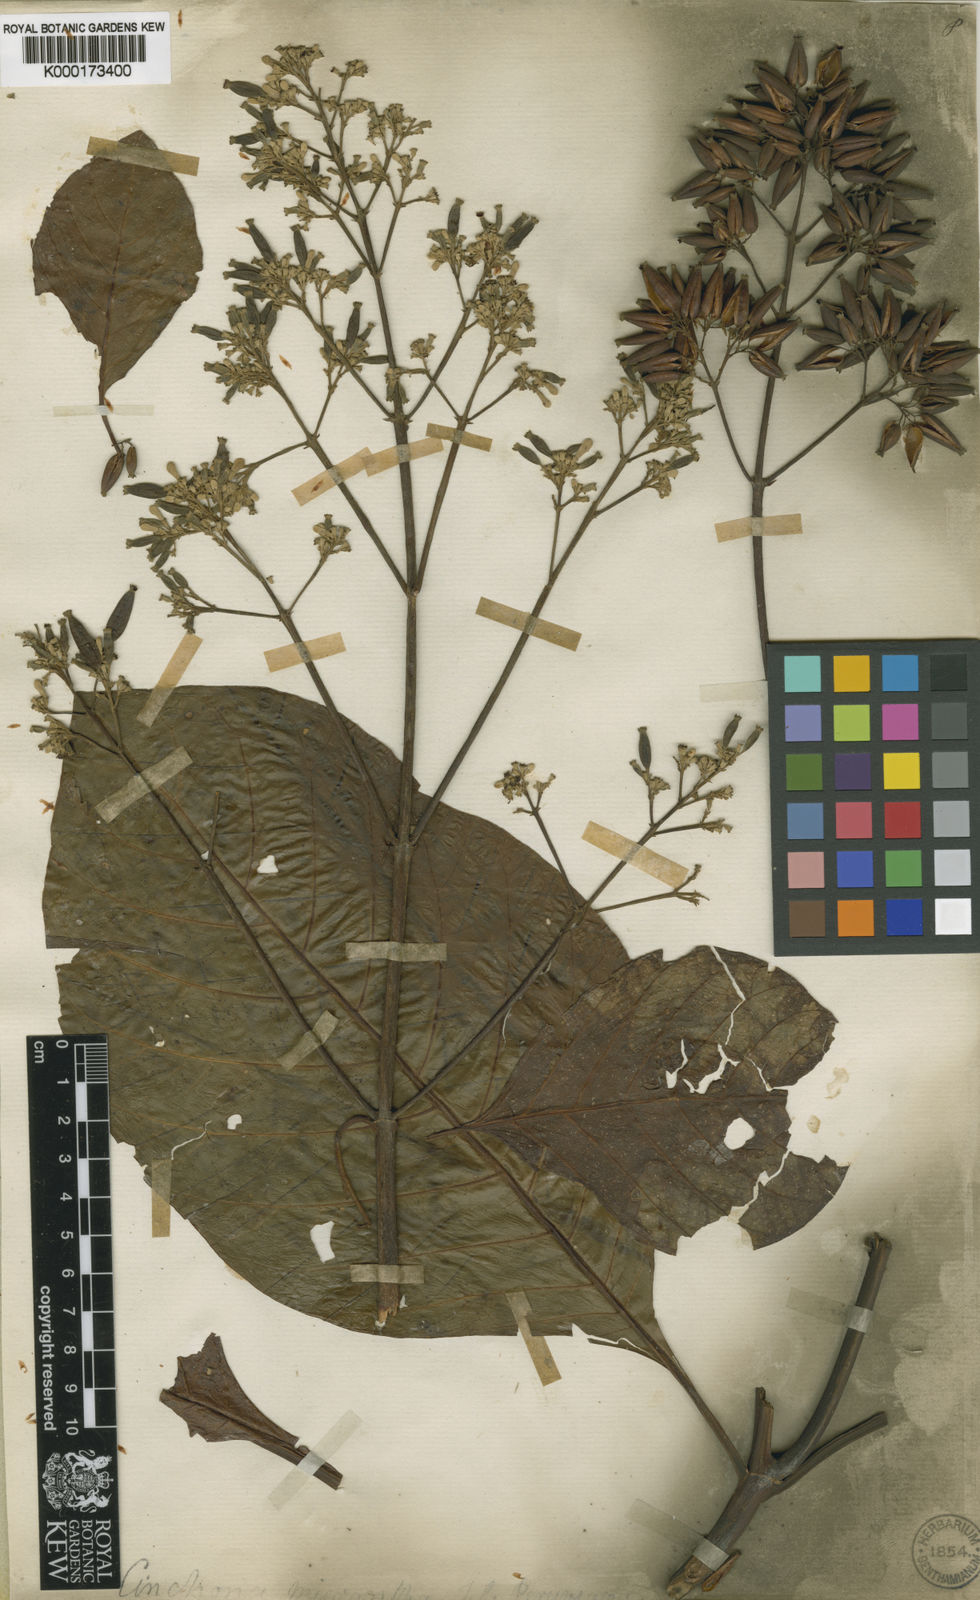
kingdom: Plantae
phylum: Tracheophyta
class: Magnoliopsida
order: Gentianales
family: Rubiaceae
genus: Cinchona
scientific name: Cinchona micrantha
